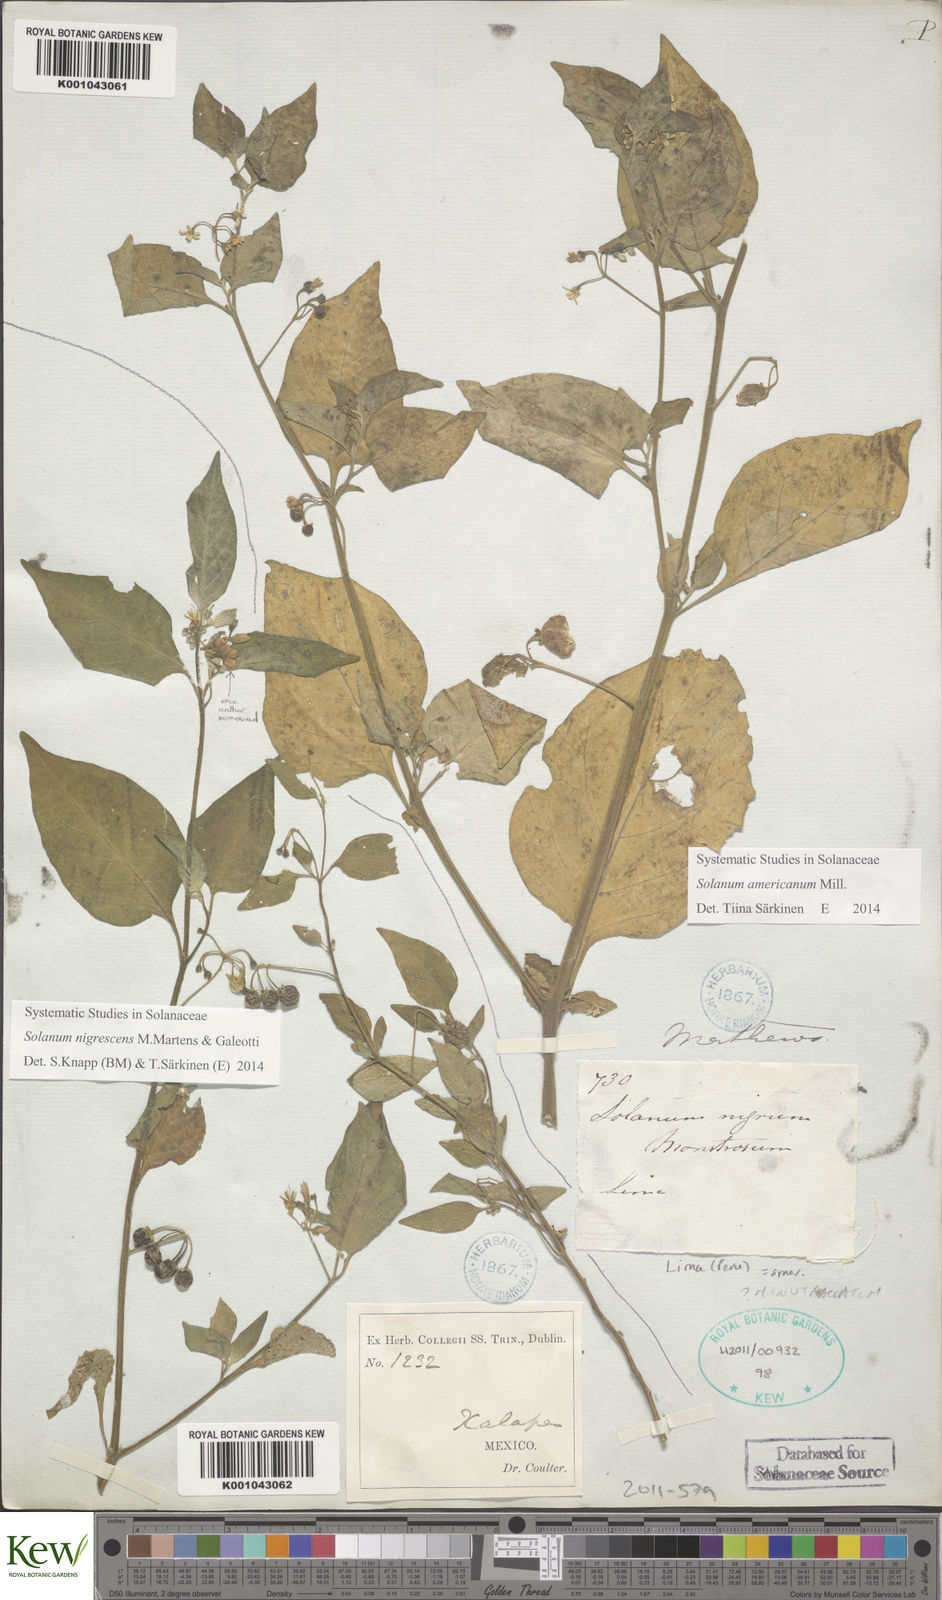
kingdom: Plantae
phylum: Tracheophyta
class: Magnoliopsida
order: Solanales
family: Solanaceae
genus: Solanum
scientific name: Solanum nigrescens
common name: Divine nightshade
